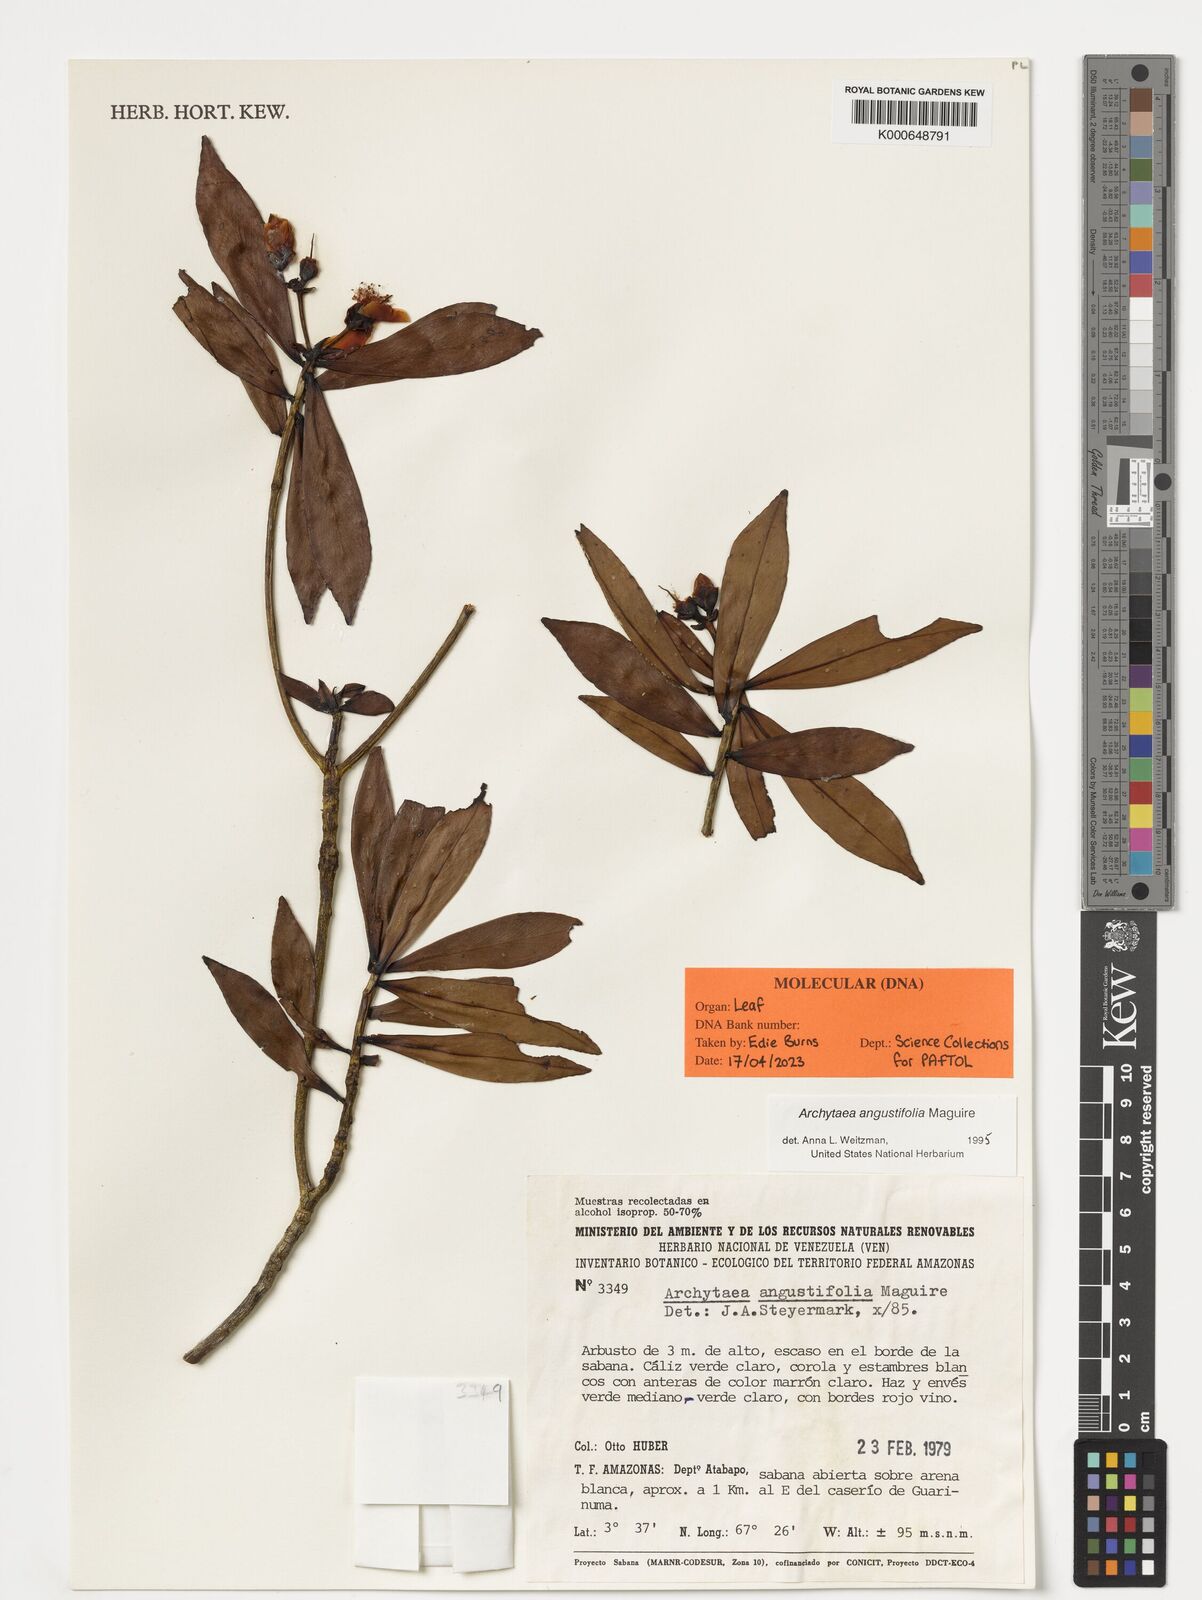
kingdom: Plantae
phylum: Tracheophyta
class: Magnoliopsida
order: Malpighiales
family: Bonnetiaceae
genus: Archytaea
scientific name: Archytaea angustifolia
